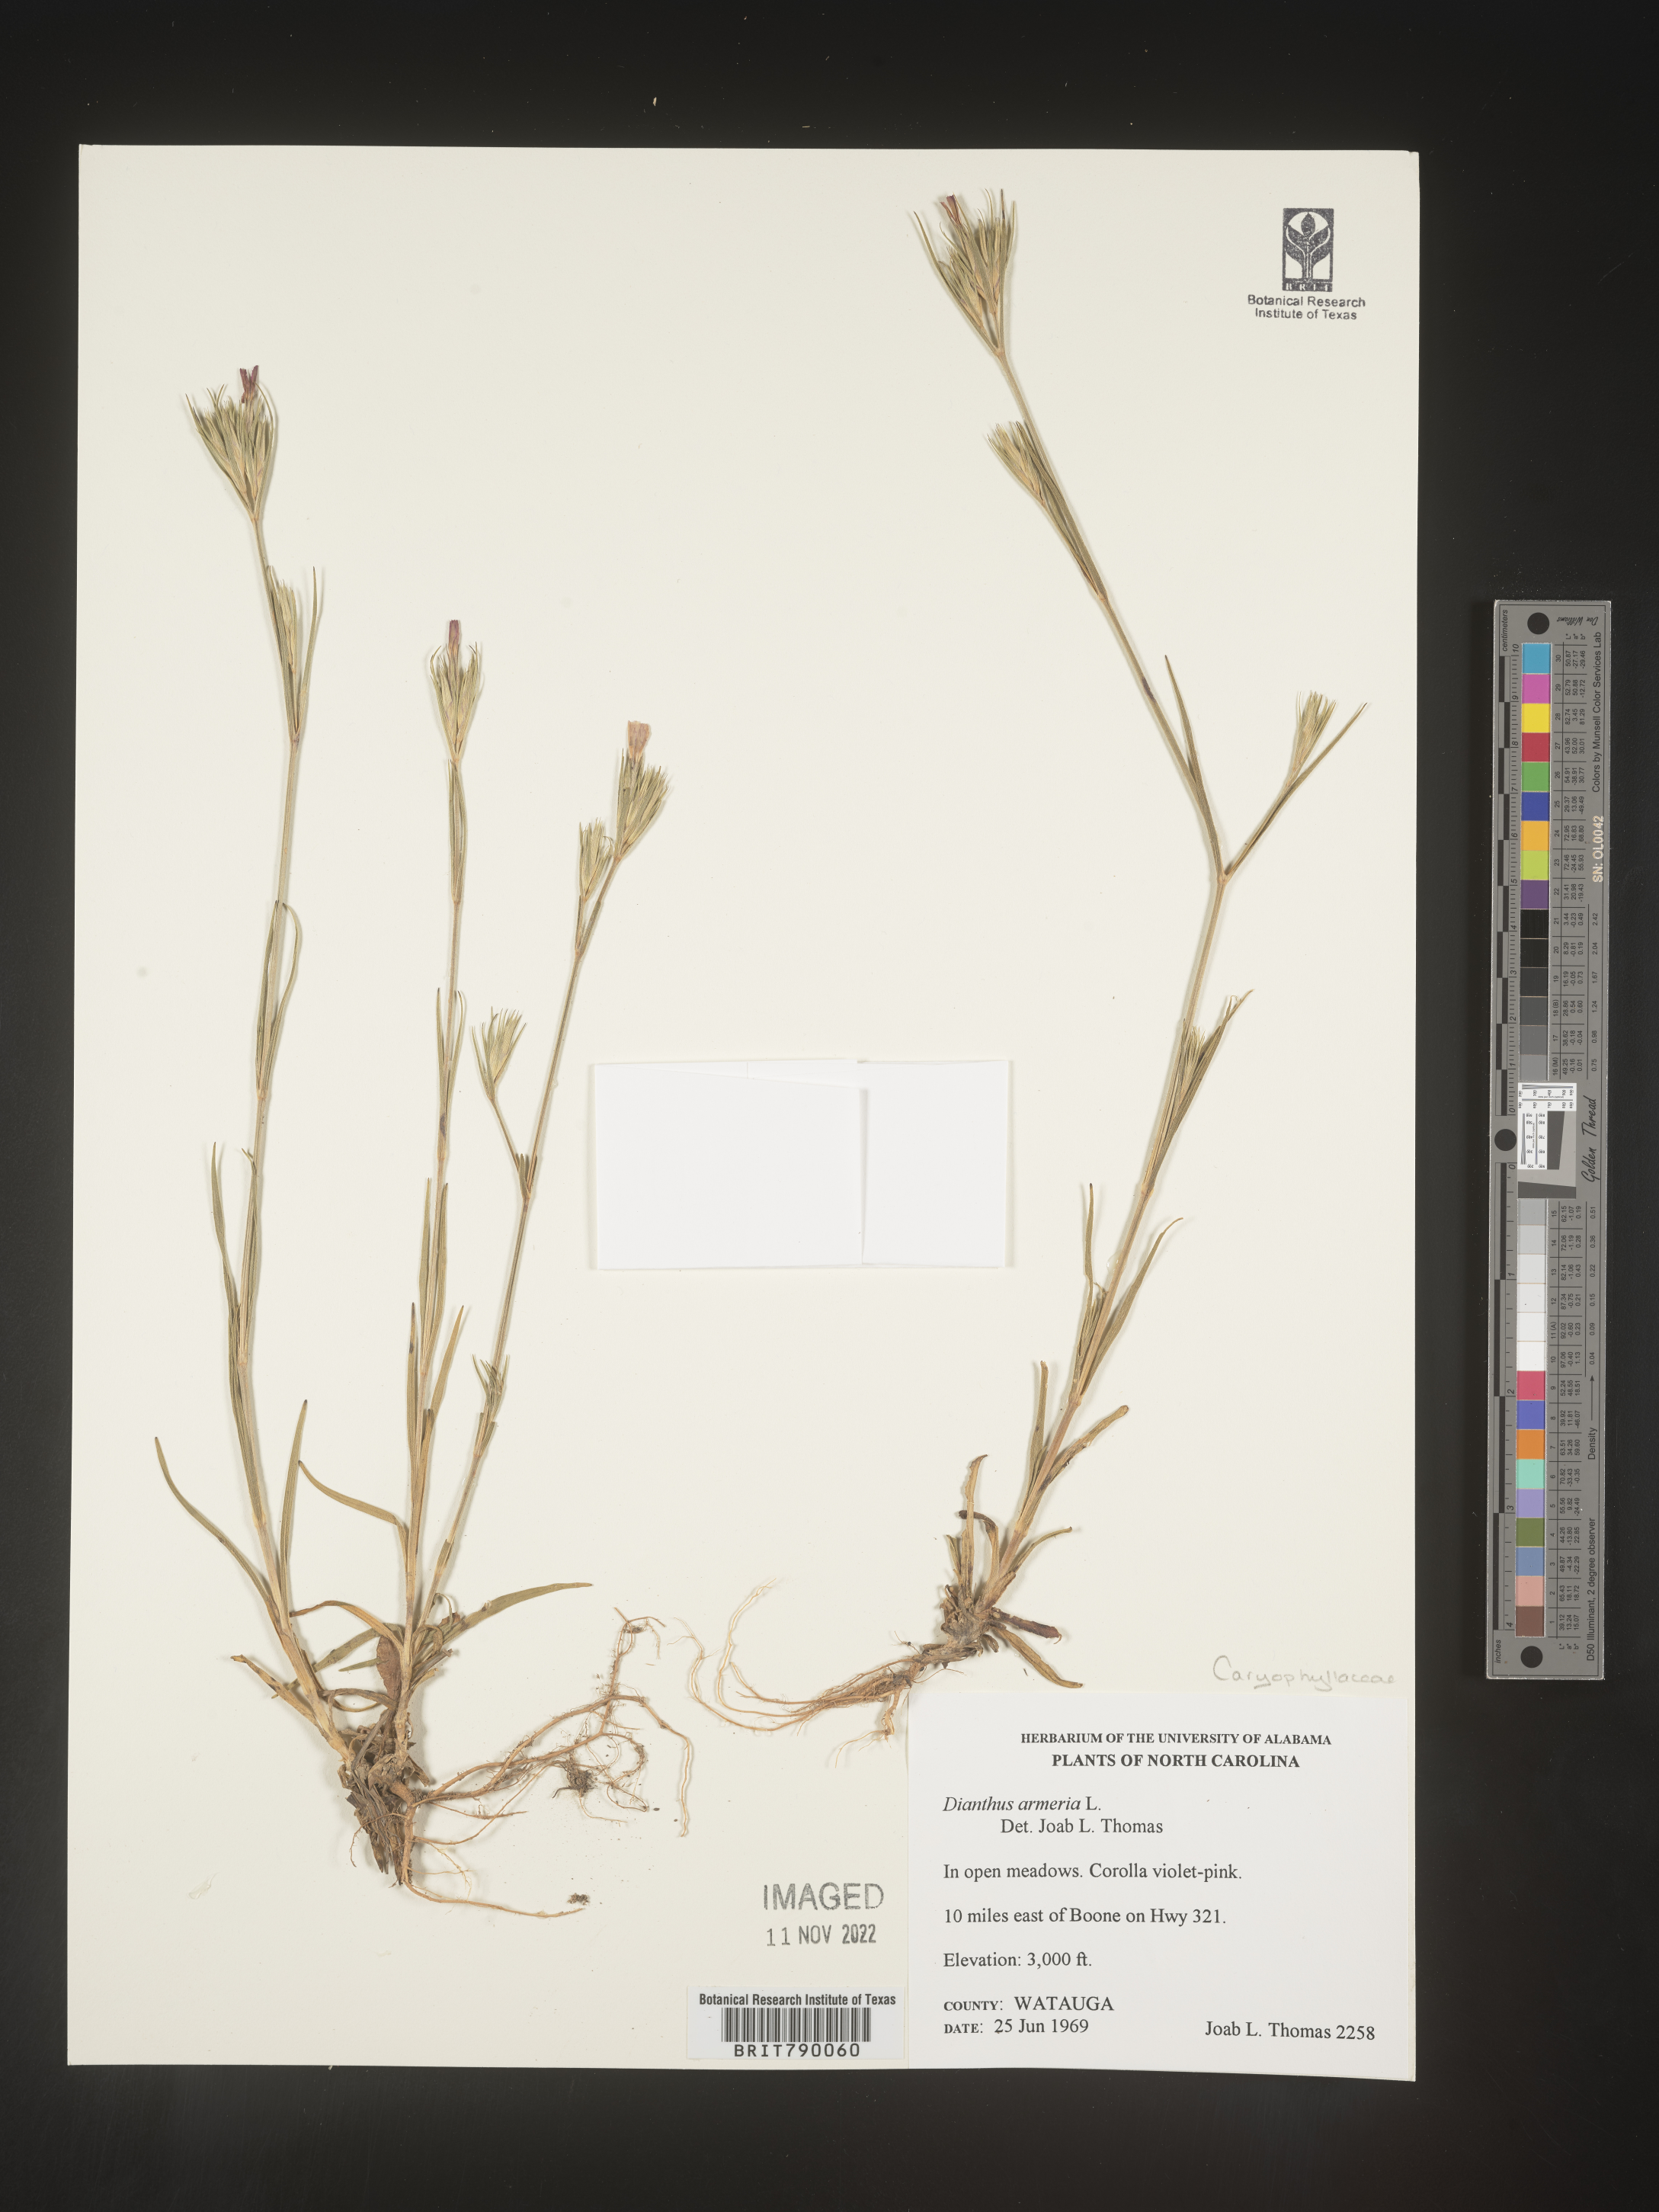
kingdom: Plantae
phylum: Tracheophyta
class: Magnoliopsida
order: Caryophyllales
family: Caryophyllaceae
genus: Dianthus
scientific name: Dianthus armeria
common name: Deptford pink
